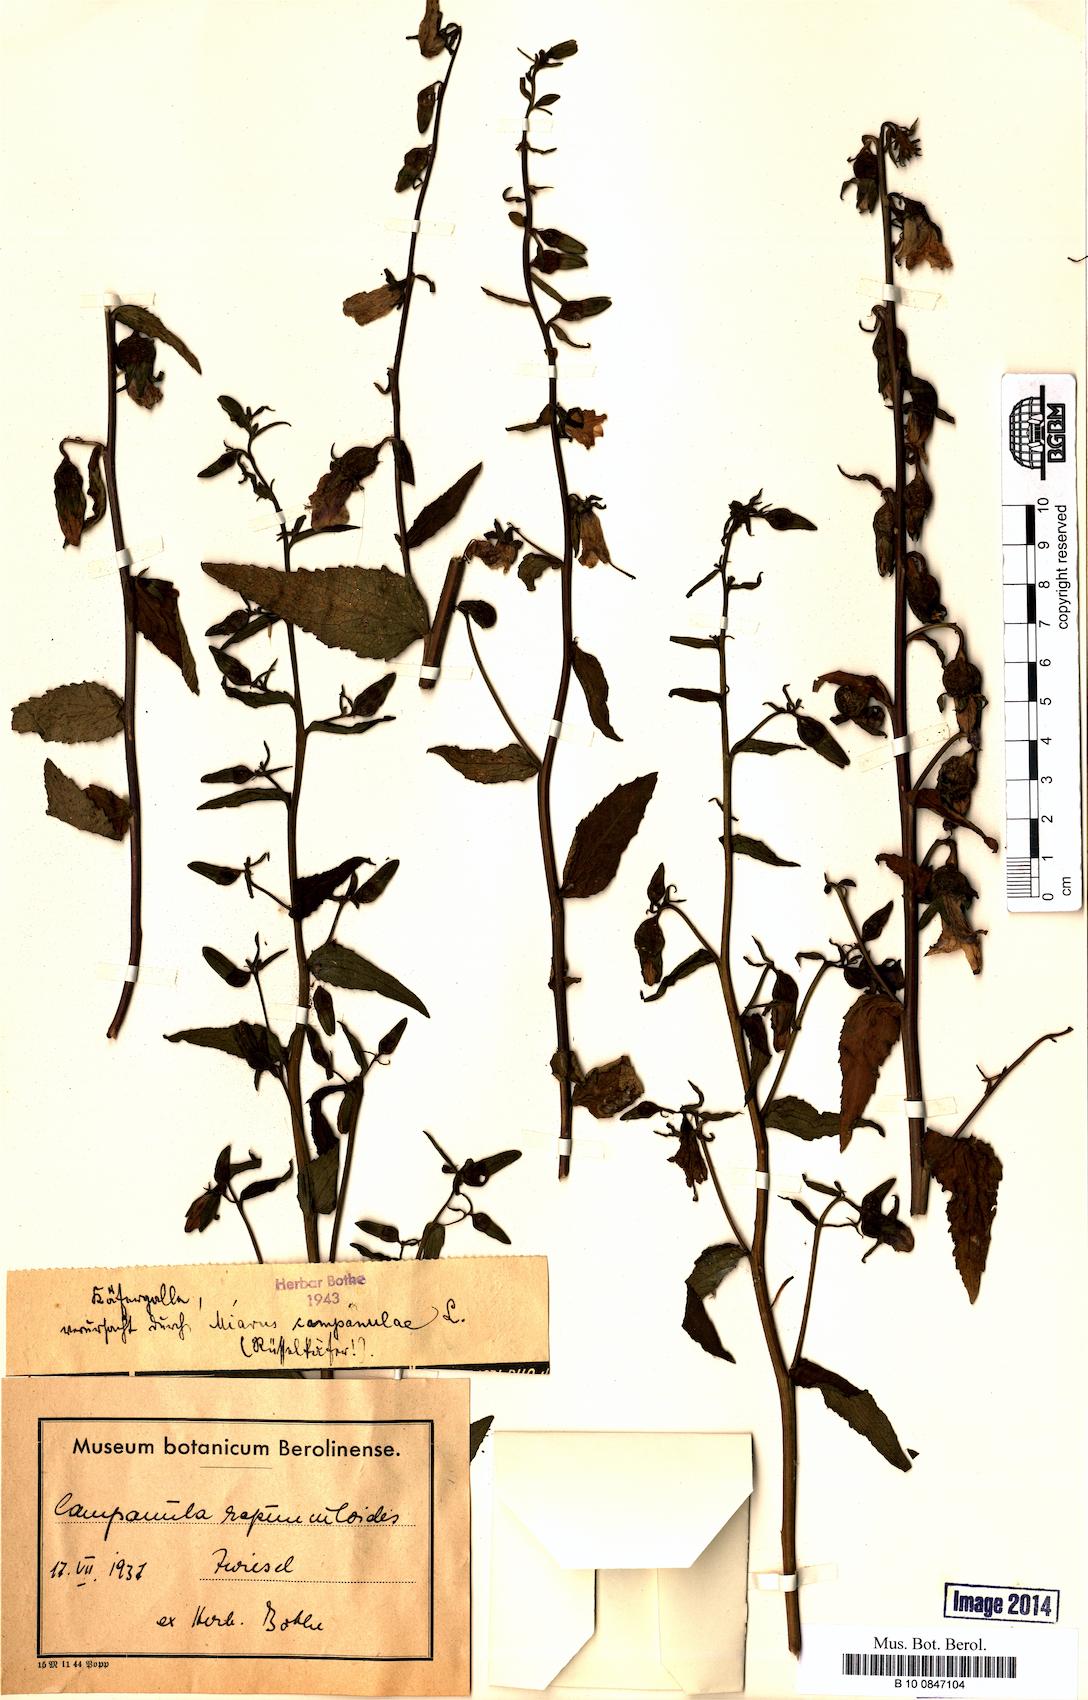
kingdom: Plantae
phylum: Tracheophyta
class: Magnoliopsida
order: Asterales
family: Campanulaceae
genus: Campanula
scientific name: Campanula rapunculoides
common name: Creeping bellflower
